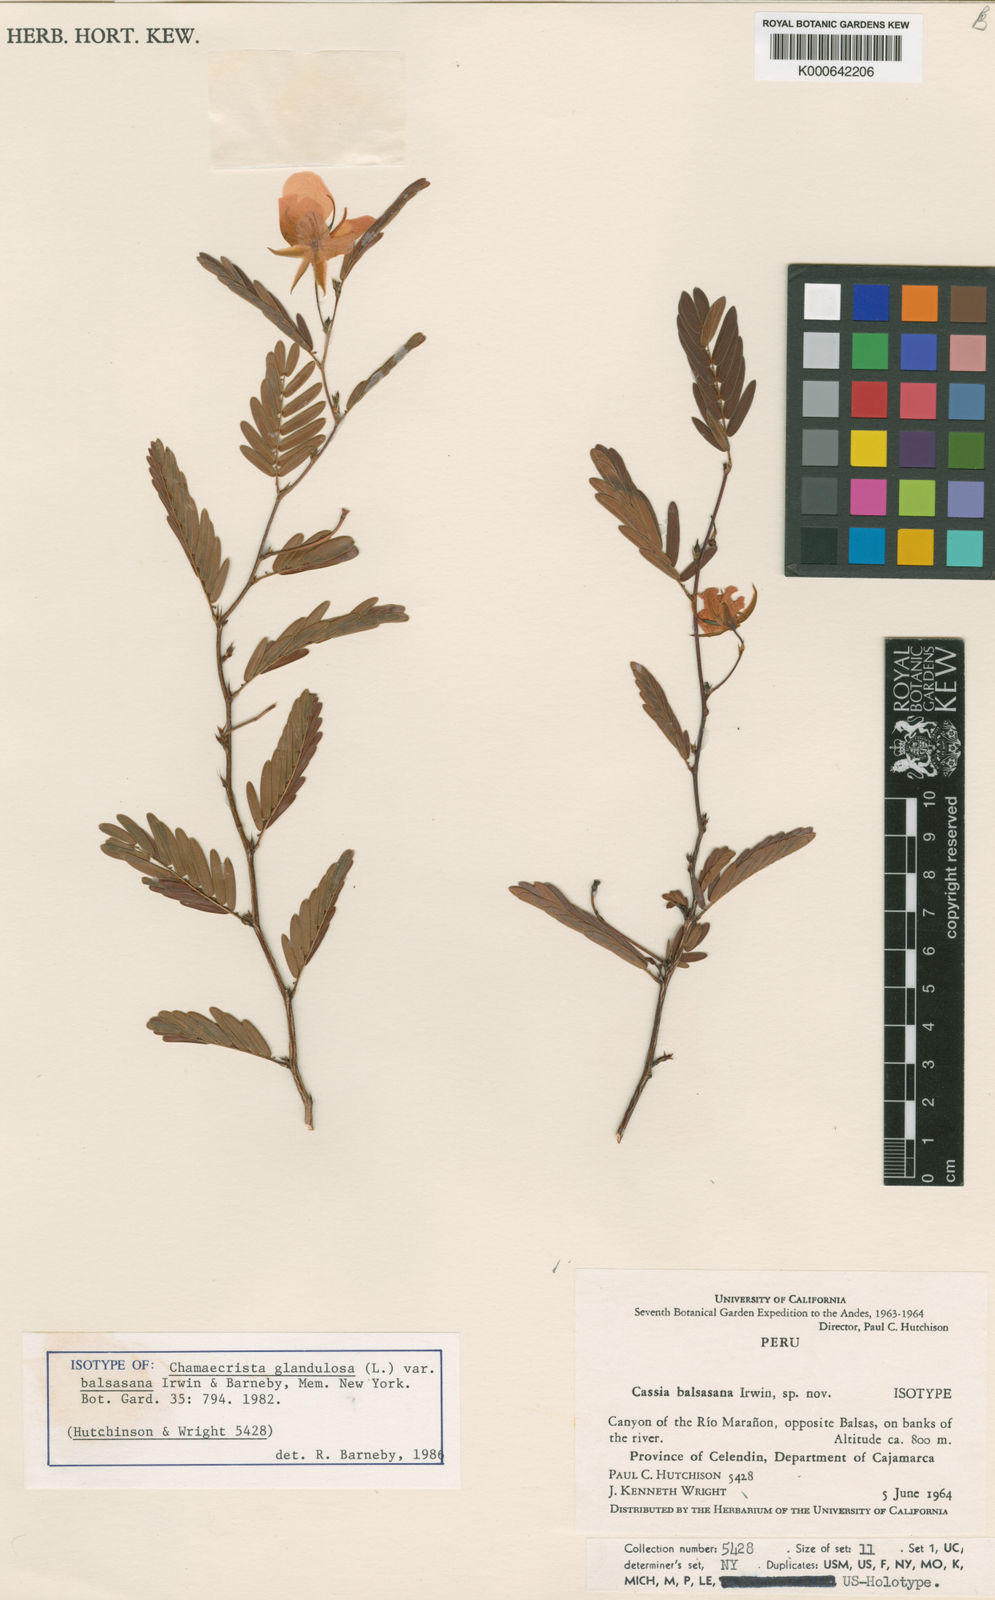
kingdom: Plantae
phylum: Tracheophyta
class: Magnoliopsida
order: Fabales
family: Fabaceae
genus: Chamaecrista
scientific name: Chamaecrista glandulosa
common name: Wild peas
